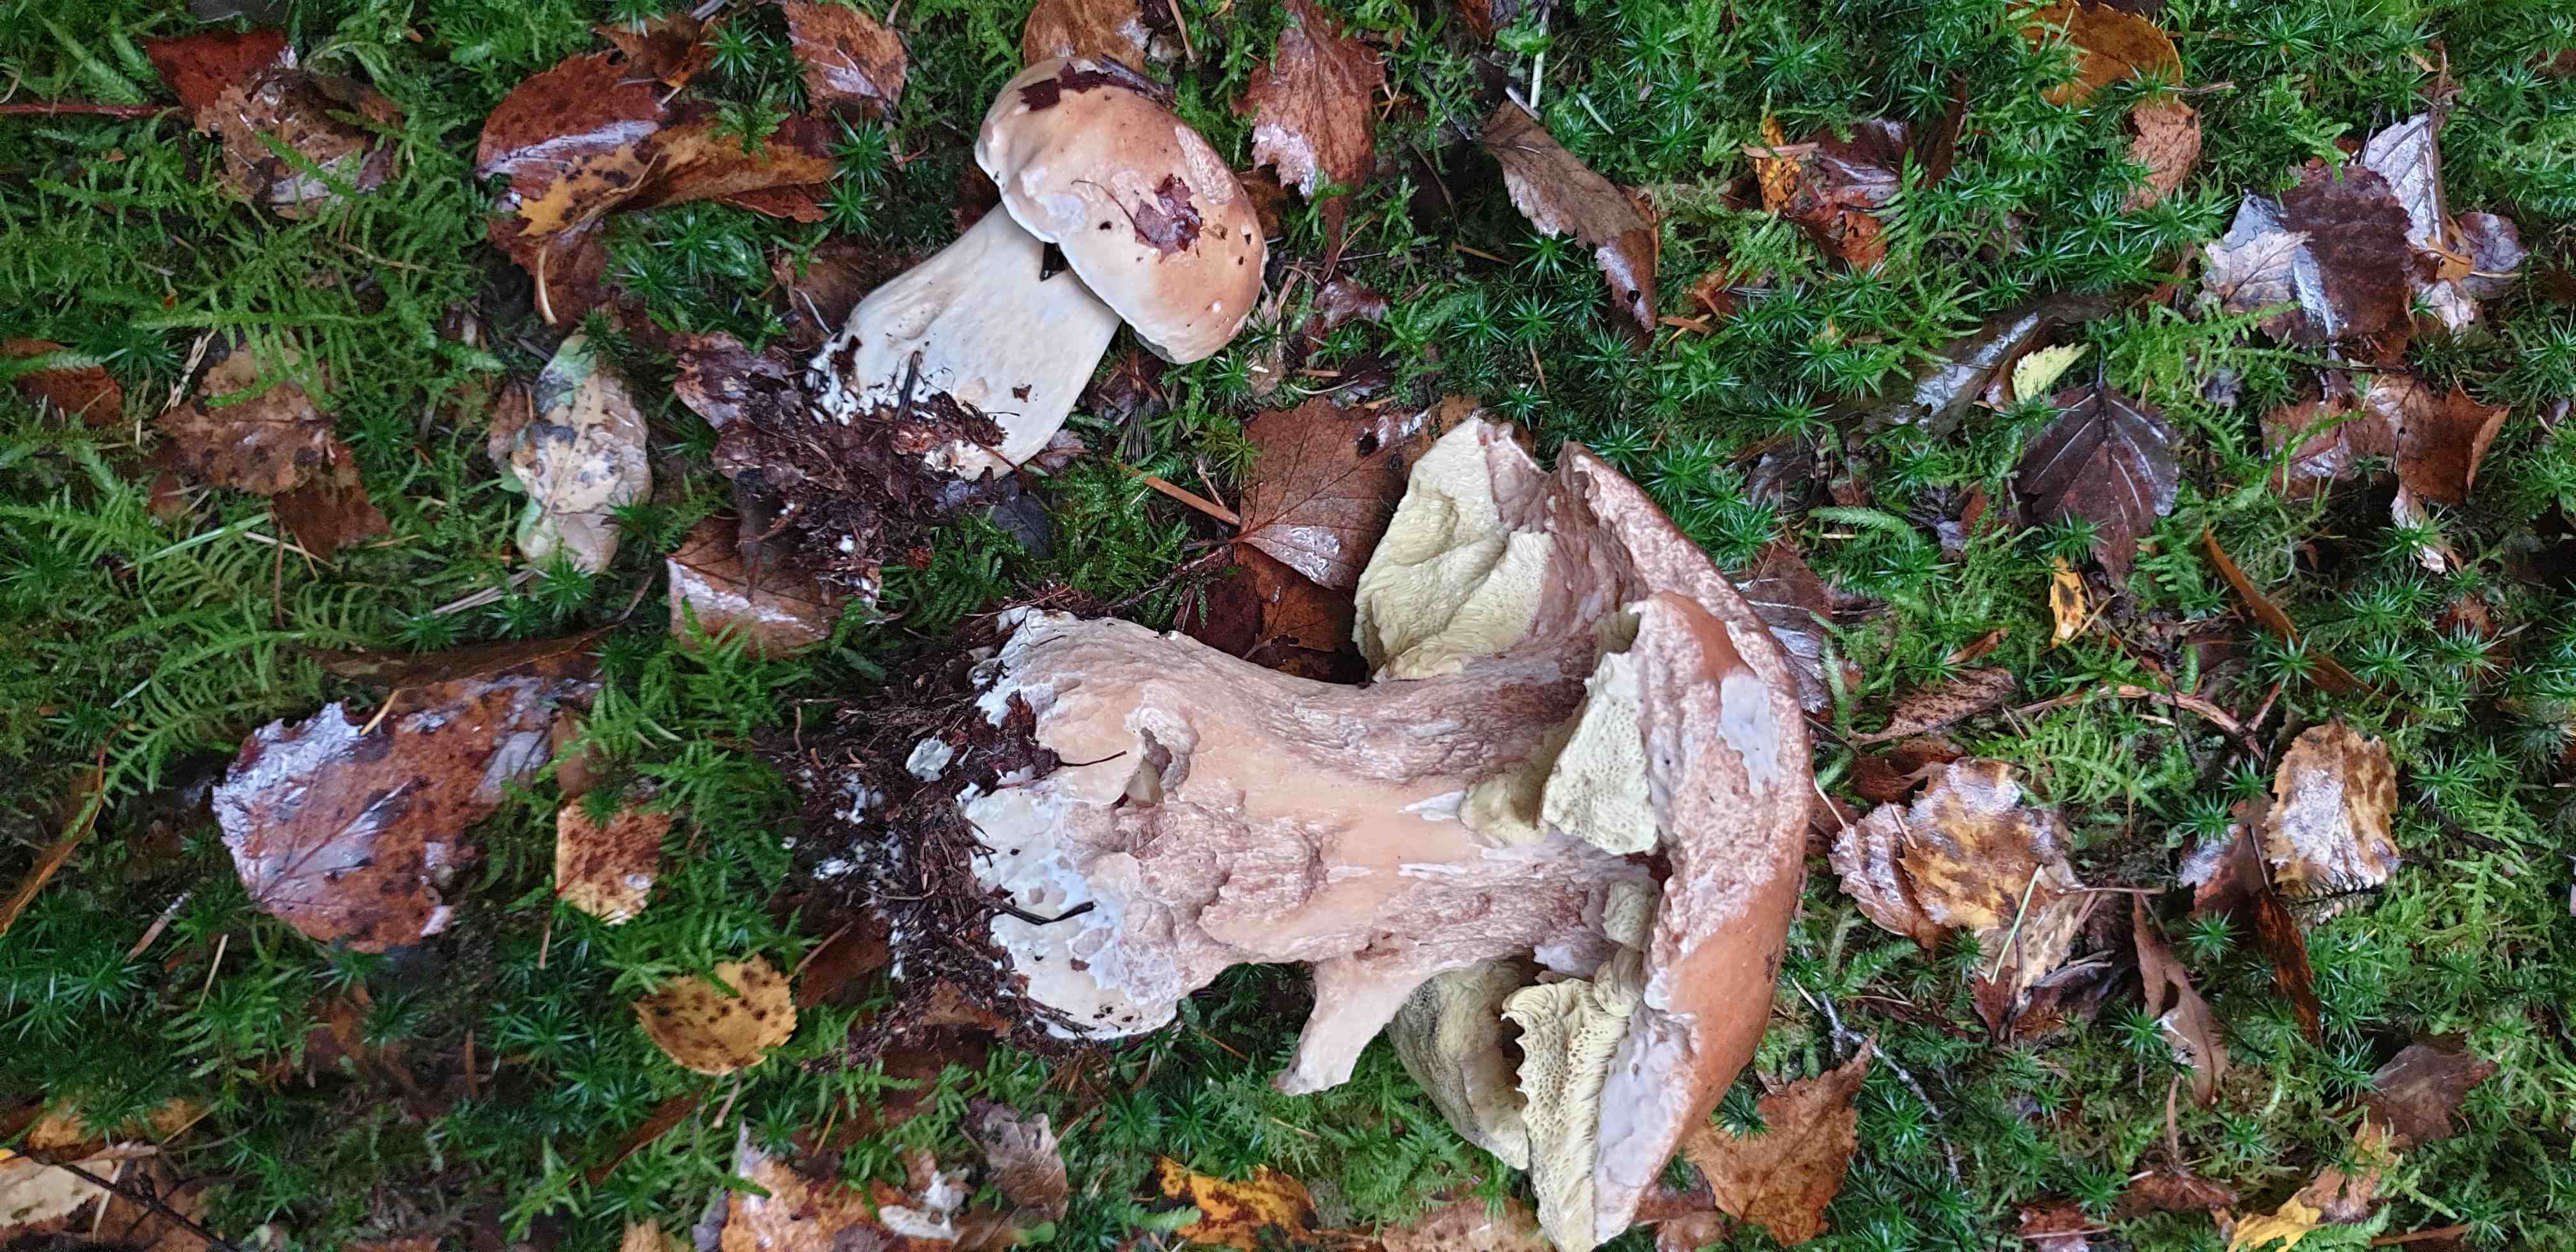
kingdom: Fungi
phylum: Basidiomycota
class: Agaricomycetes
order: Boletales
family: Boletaceae
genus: Boletus
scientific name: Boletus edulis
